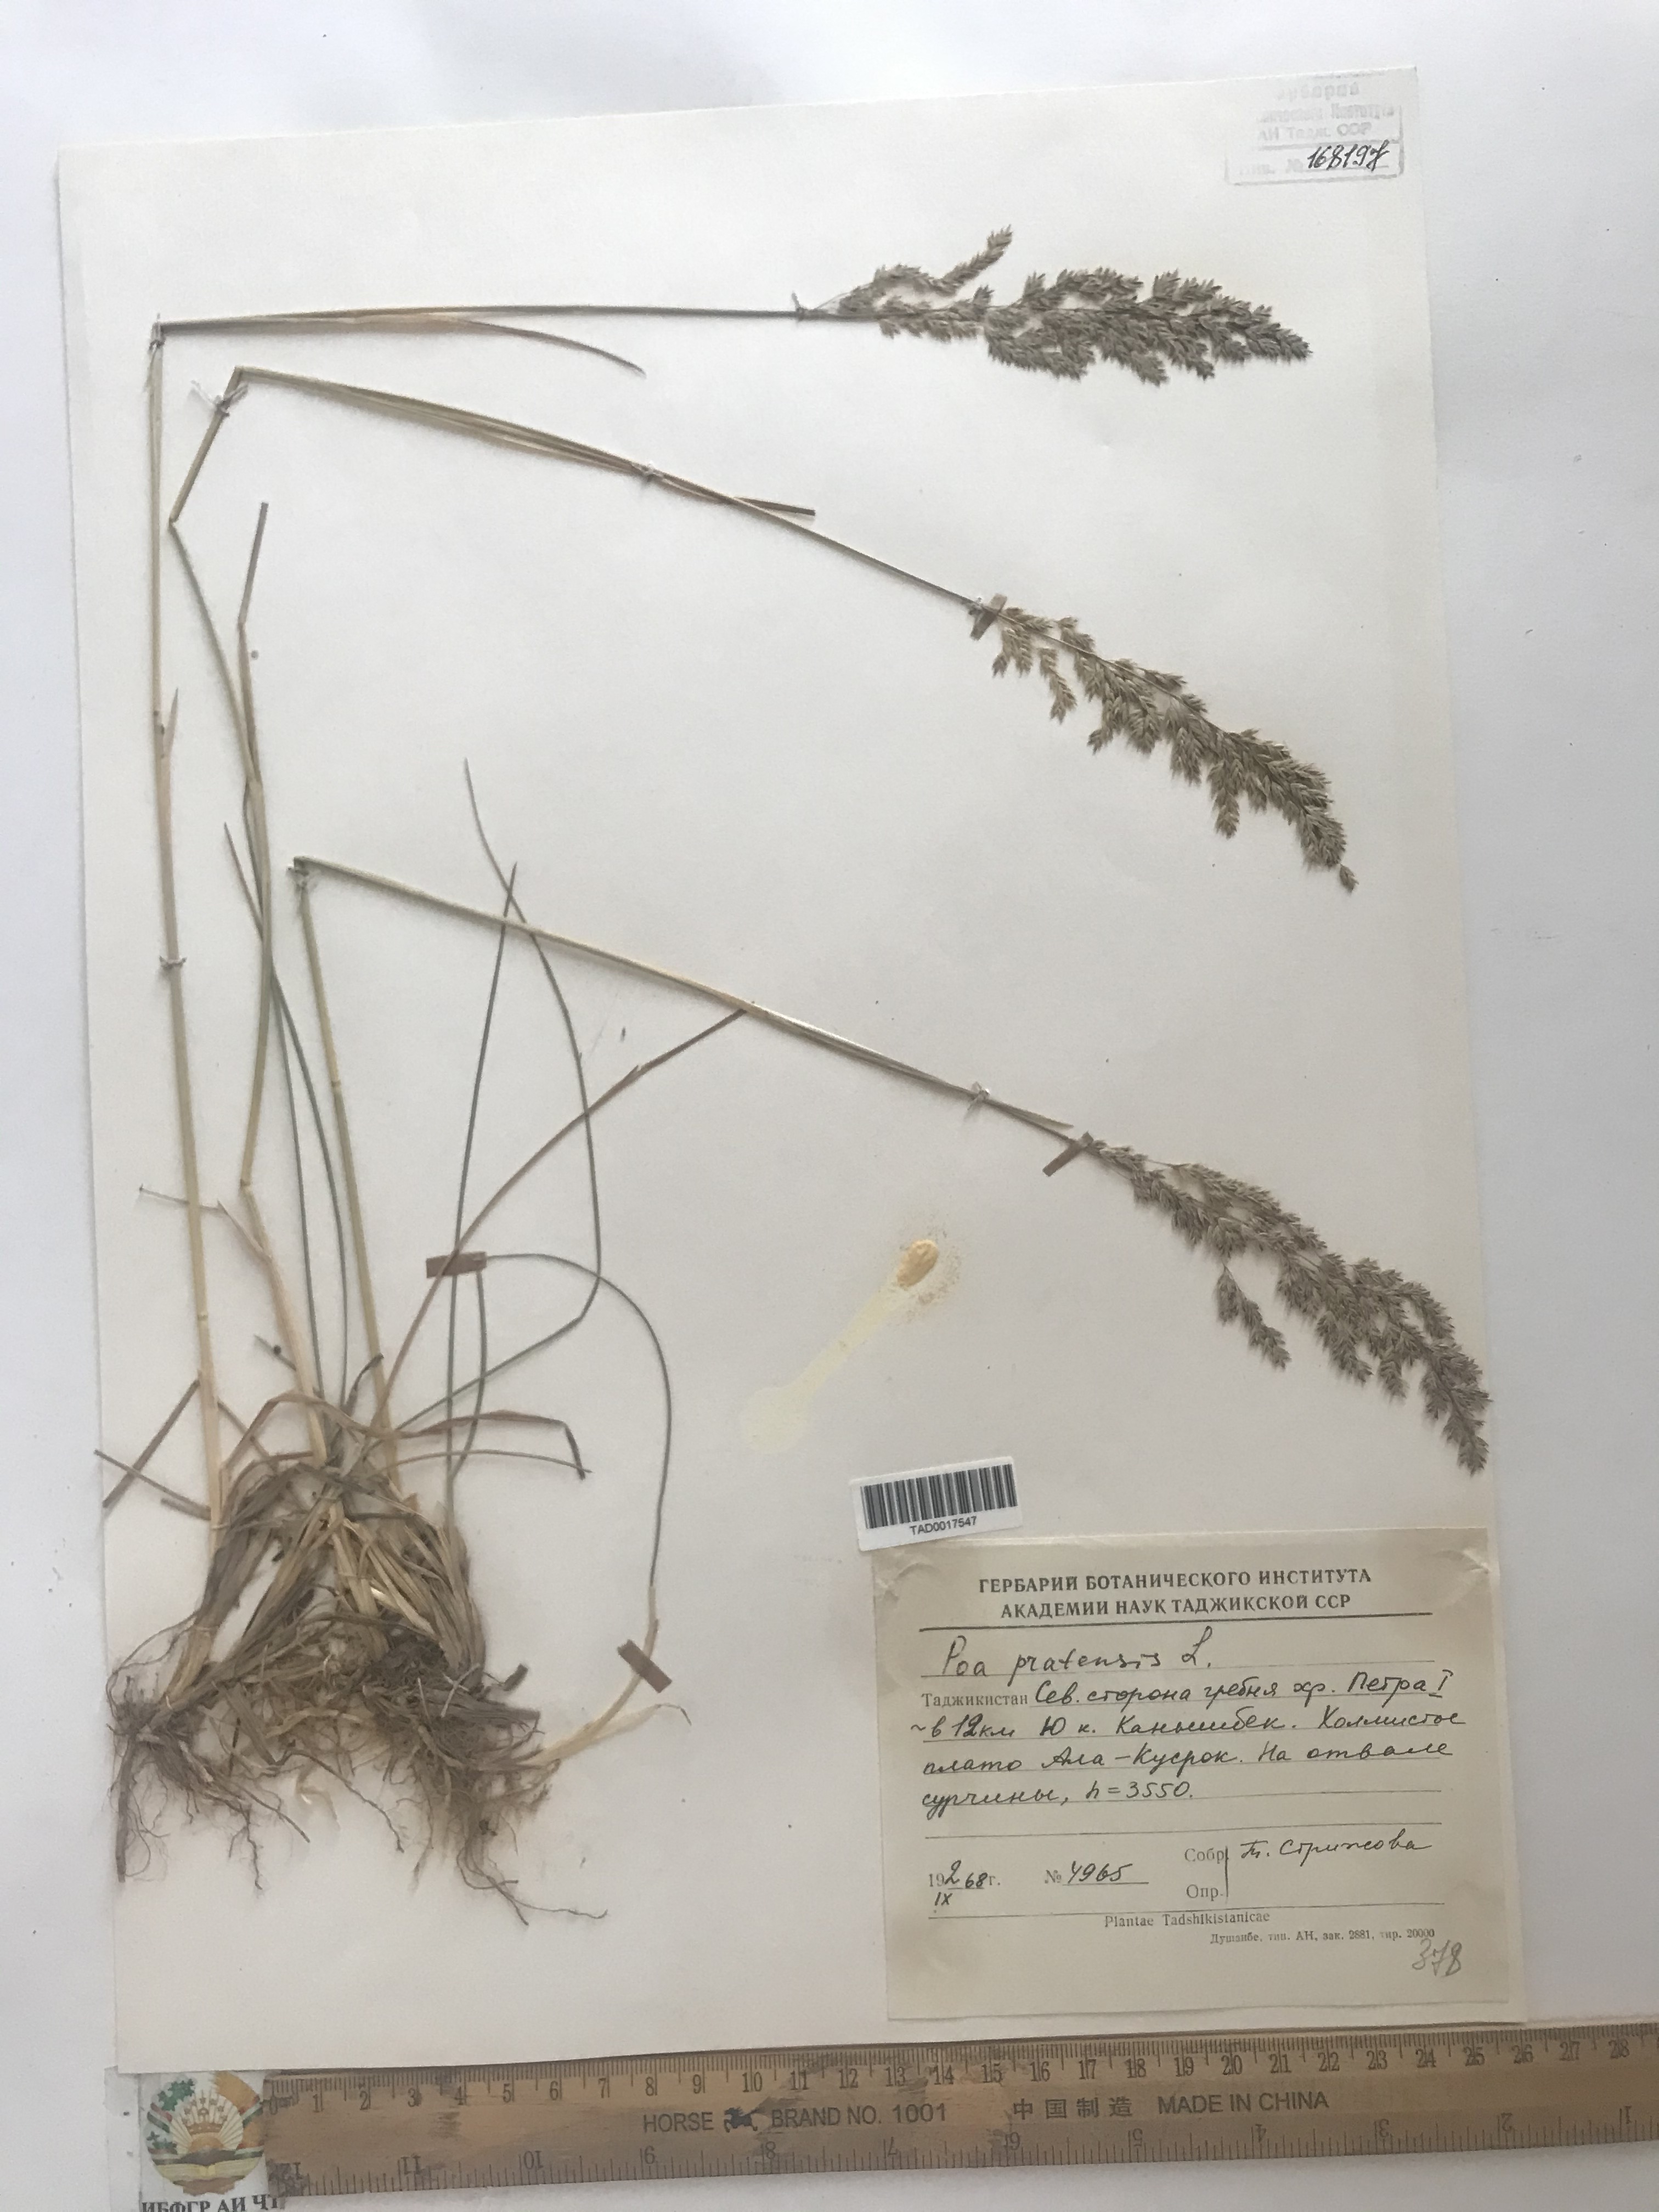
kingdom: Plantae
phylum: Tracheophyta
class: Liliopsida
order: Poales
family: Poaceae
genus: Poa
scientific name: Poa pratensis
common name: Kentucky bluegrass
